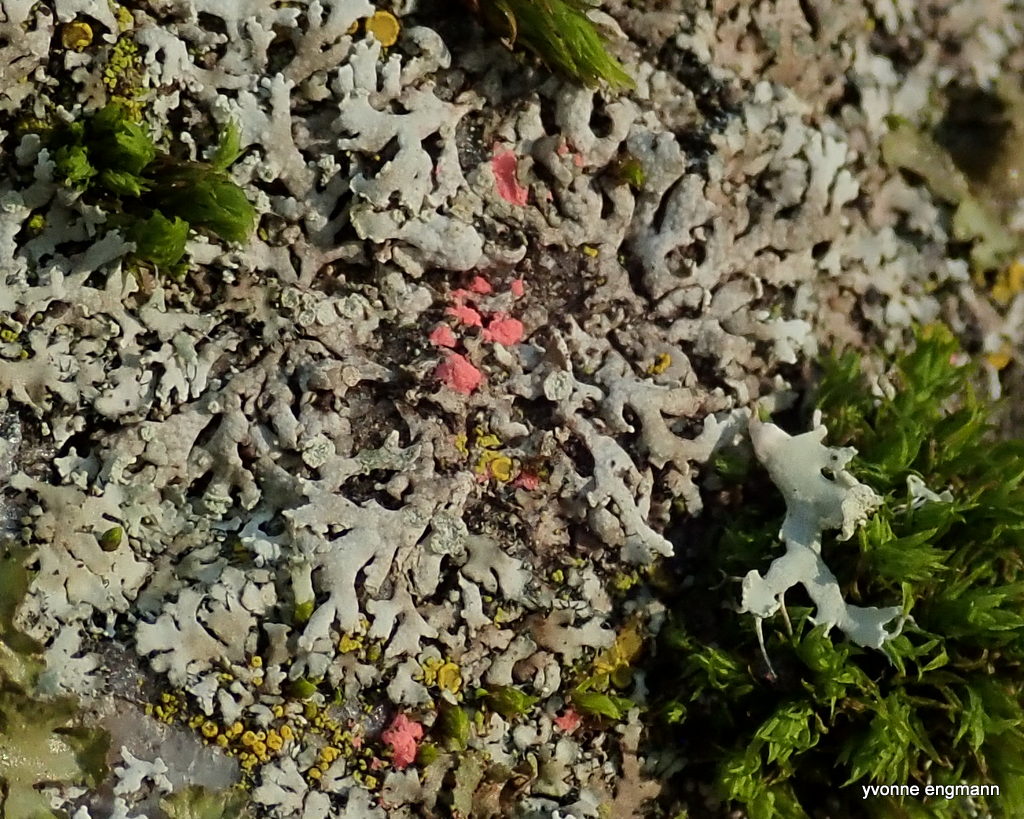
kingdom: Fungi
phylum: Ascomycota
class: Sordariomycetes
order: Hypocreales
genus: Illosporiopsis
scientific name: Illosporiopsis christiansenii
